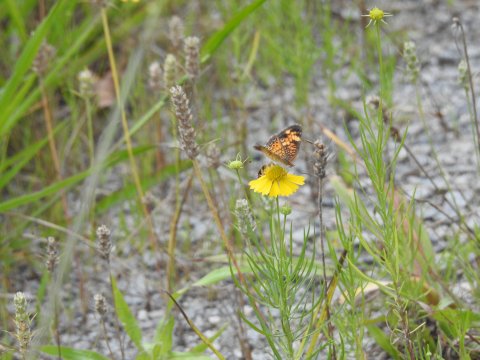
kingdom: Animalia
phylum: Arthropoda
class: Insecta
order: Lepidoptera
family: Nymphalidae
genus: Phyciodes
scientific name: Phyciodes tharos
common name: Pearl Crescent
